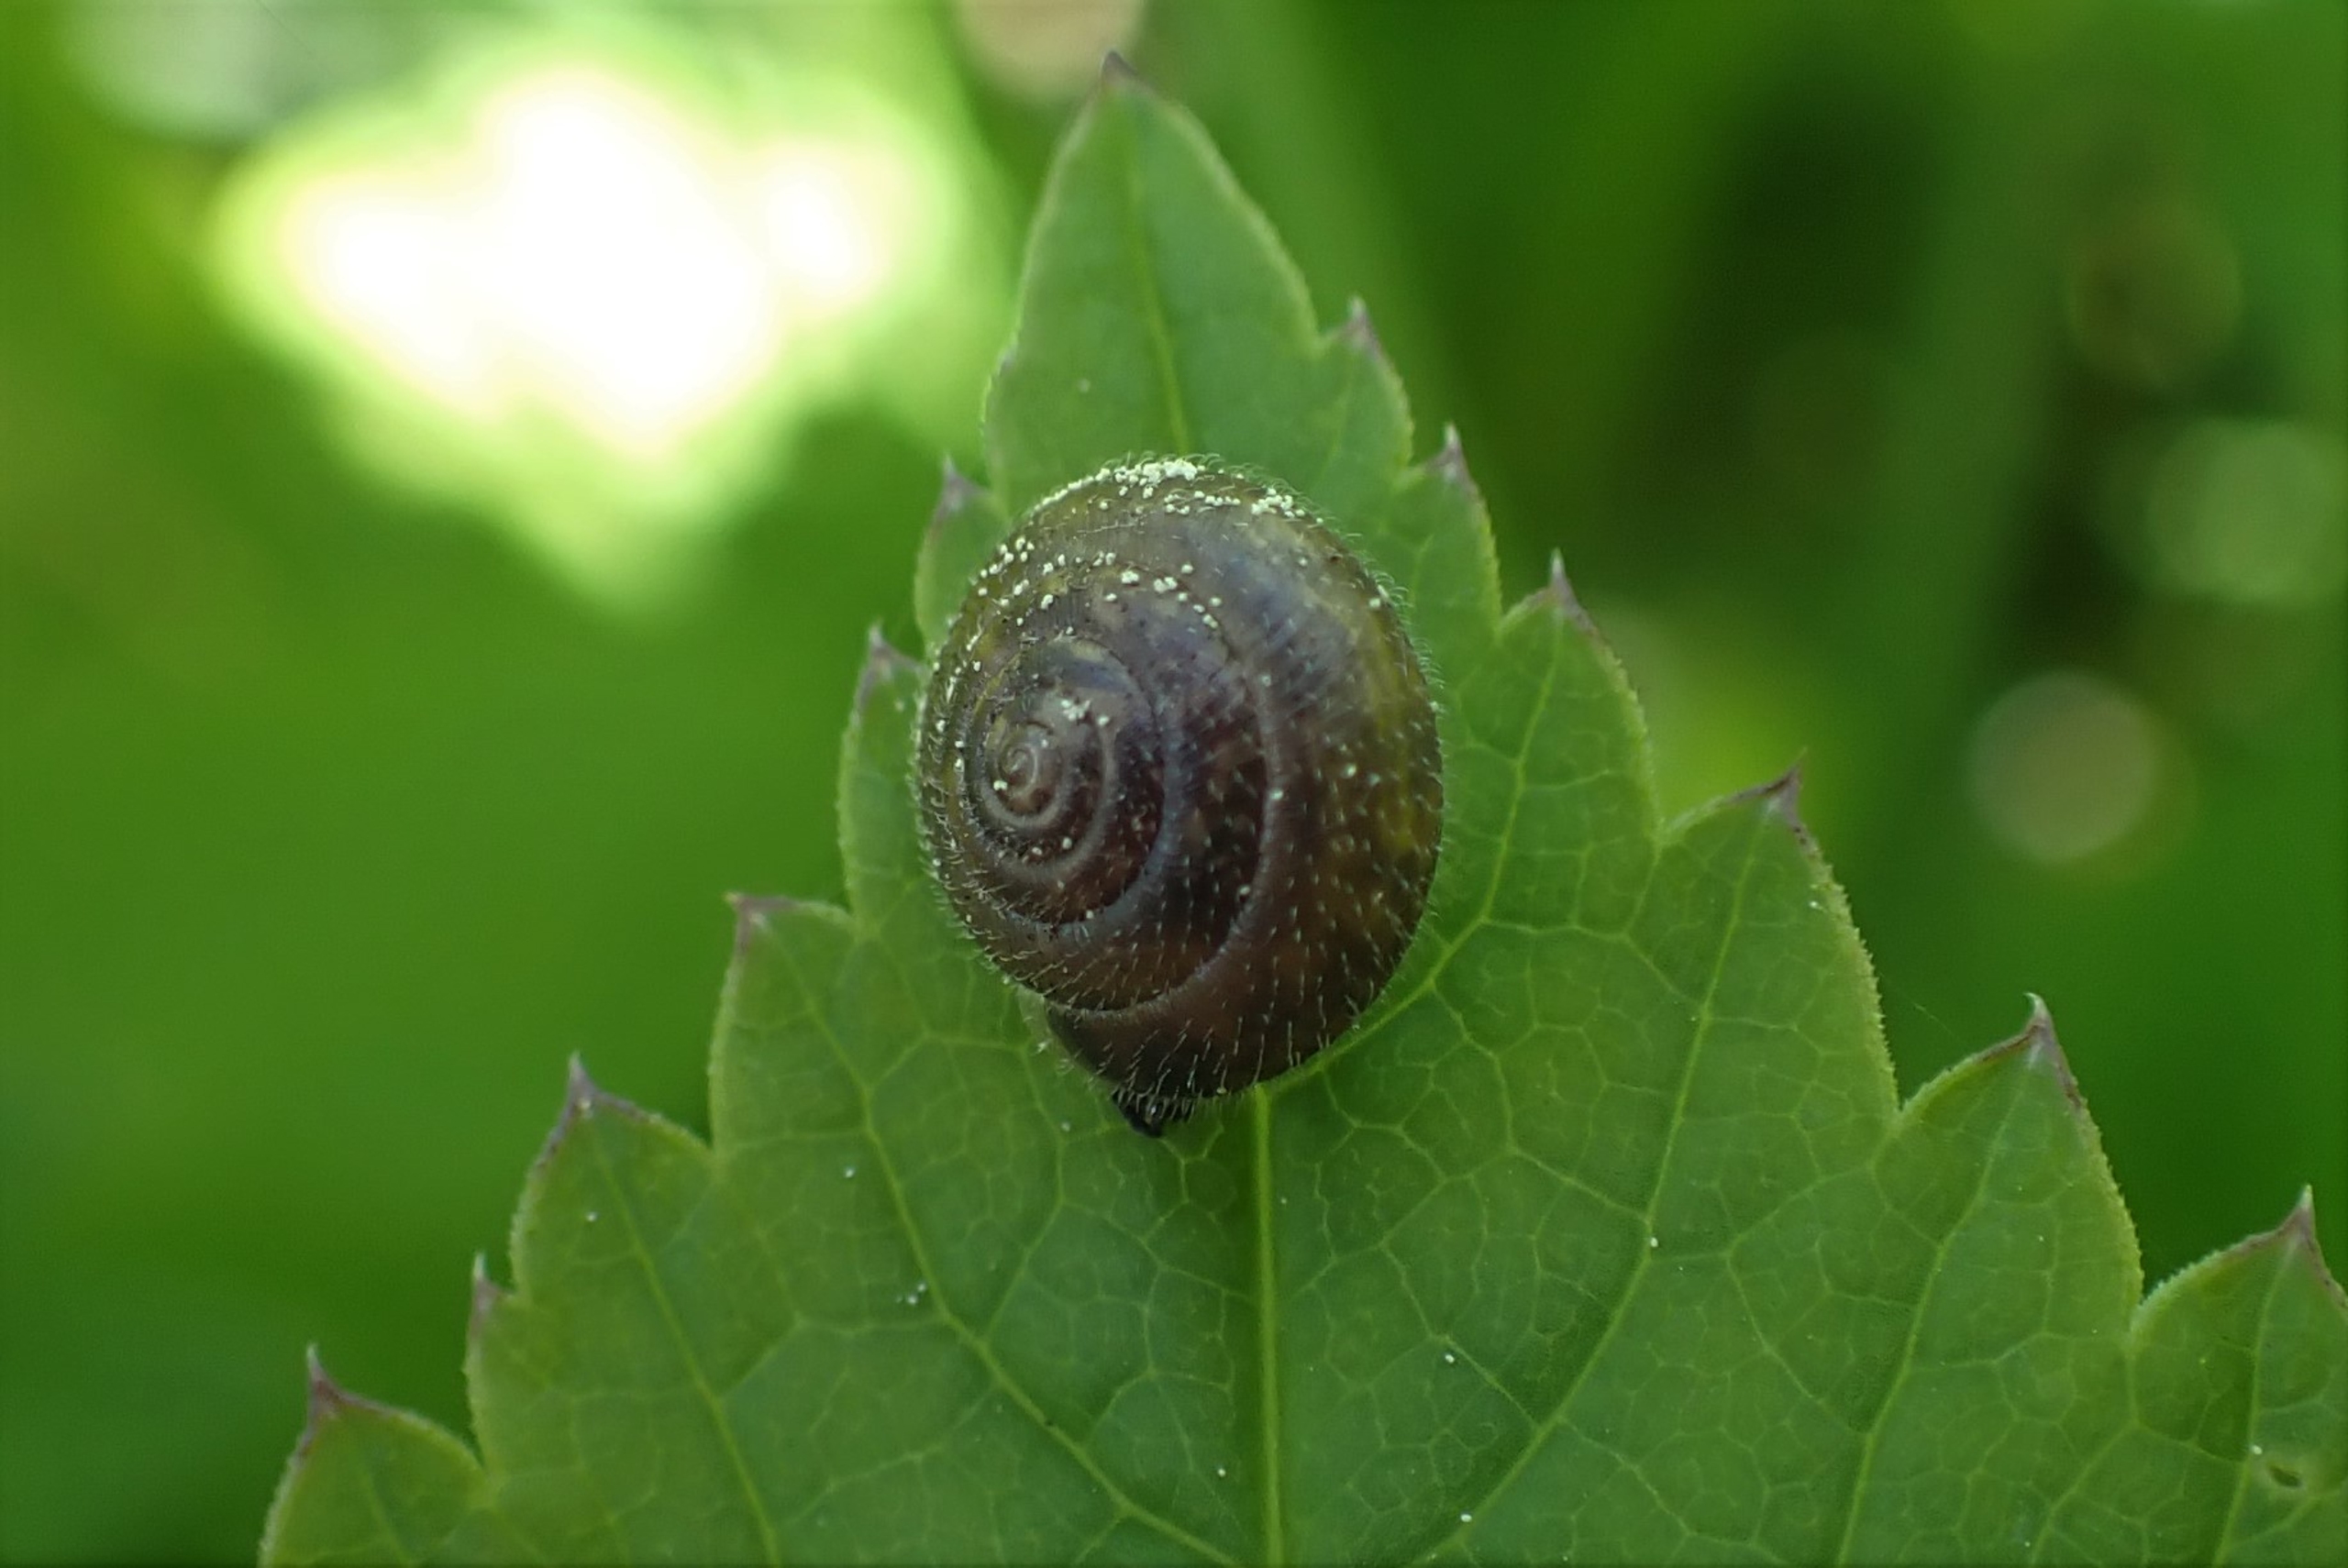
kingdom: Animalia
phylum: Mollusca
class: Gastropoda
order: Stylommatophora
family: Hygromiidae
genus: Trochulus
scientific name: Trochulus hispidus
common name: Håret snegl
